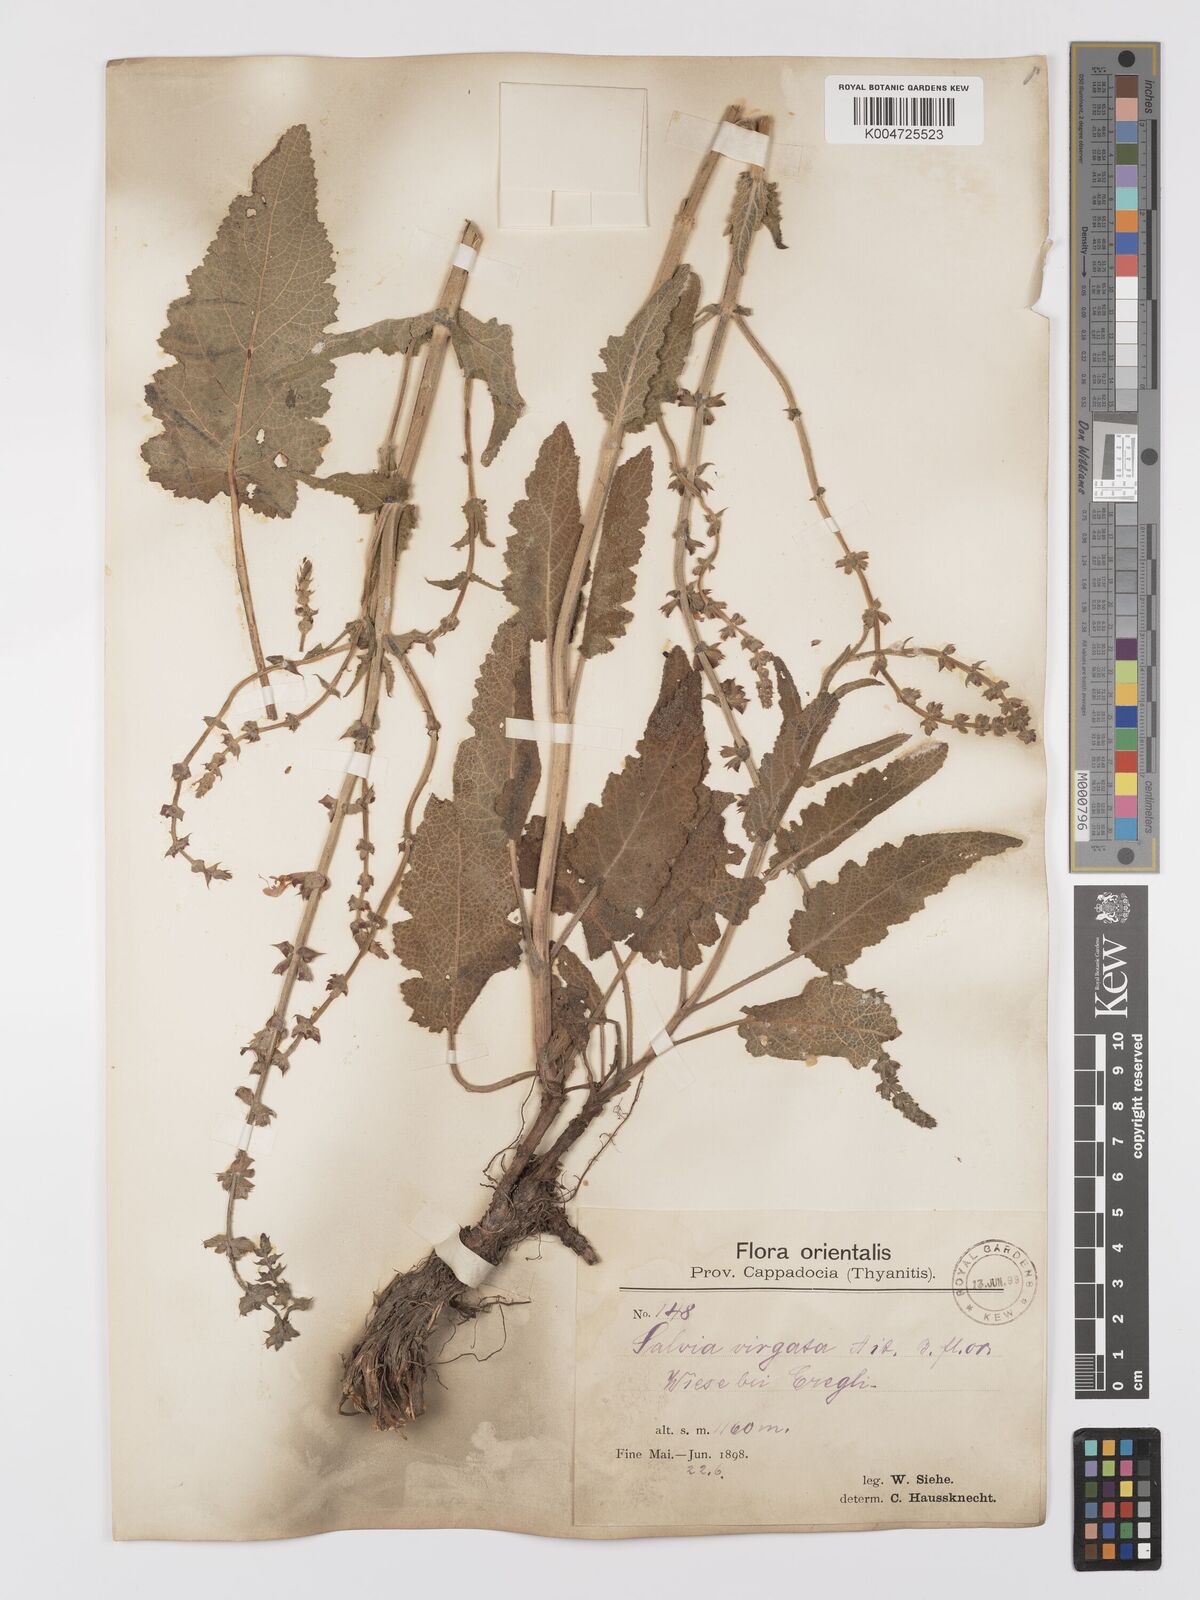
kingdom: Plantae
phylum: Tracheophyta
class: Magnoliopsida
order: Lamiales
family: Lamiaceae
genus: Salvia
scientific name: Salvia
